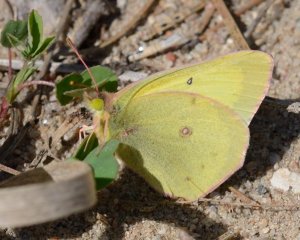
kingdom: Animalia
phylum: Arthropoda
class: Insecta
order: Lepidoptera
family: Pieridae
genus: Colias
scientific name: Colias philodice
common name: Clouded Sulphur
